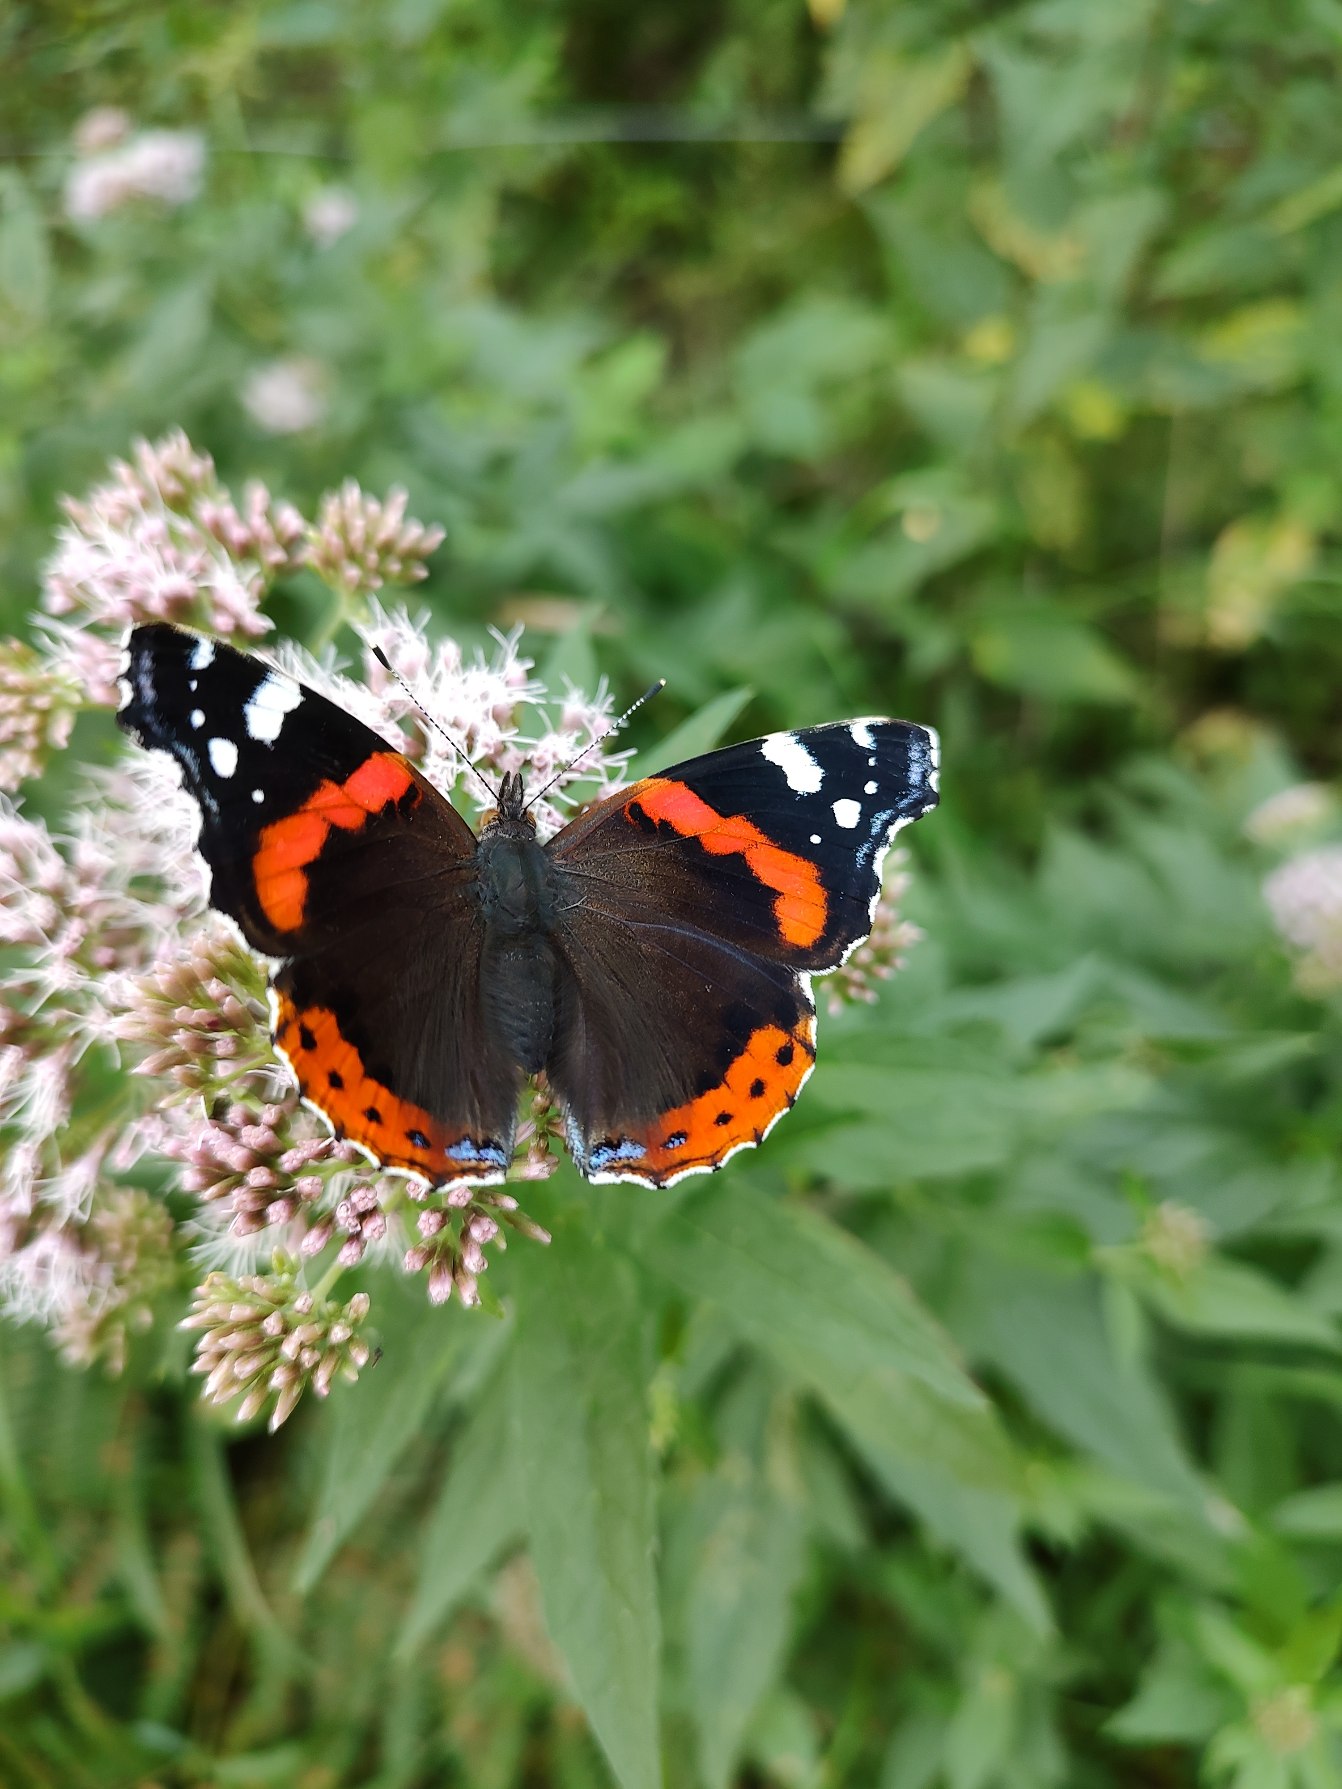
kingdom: Animalia
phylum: Arthropoda
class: Insecta
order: Lepidoptera
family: Nymphalidae
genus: Vanessa
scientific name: Vanessa atalanta
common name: Admiral
